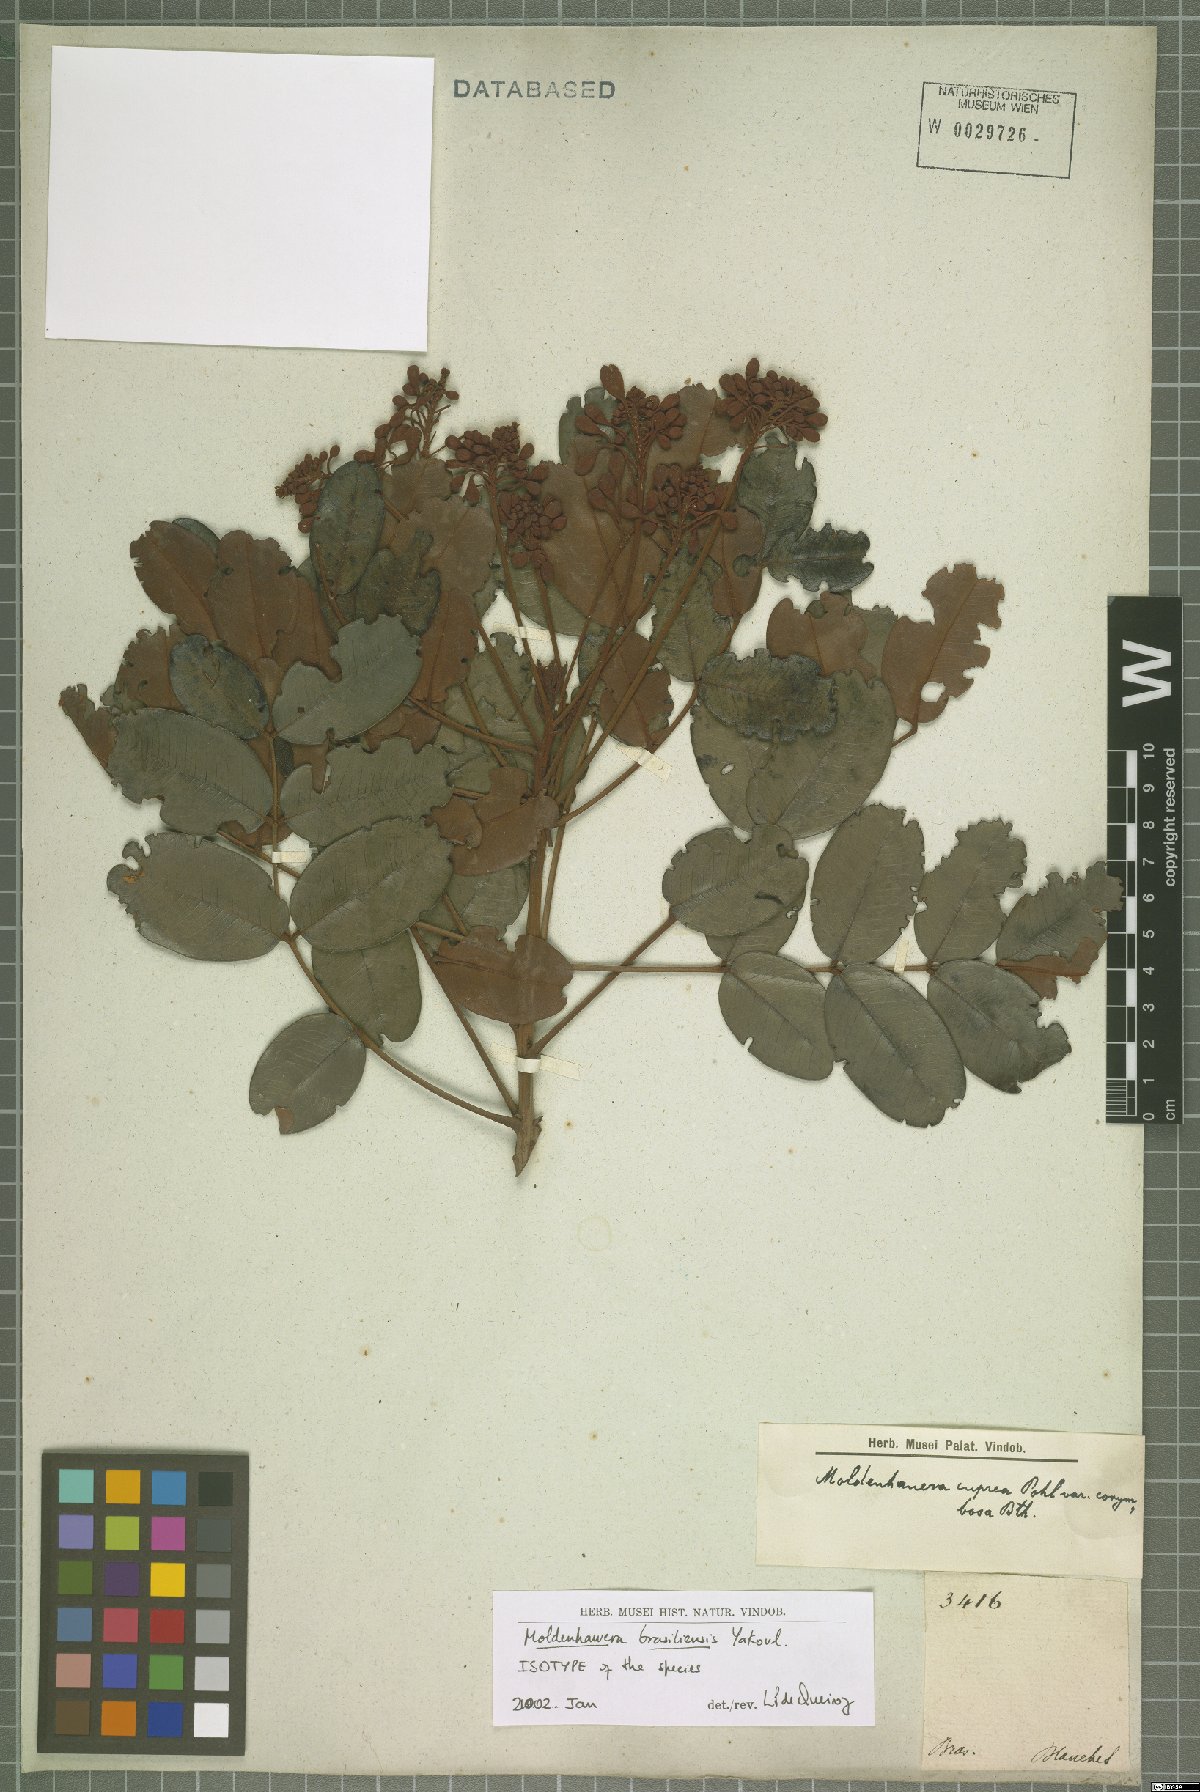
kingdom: Plantae
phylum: Tracheophyta
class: Magnoliopsida
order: Fabales
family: Fabaceae
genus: Moldenhawera
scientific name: Moldenhawera brasiliensis
